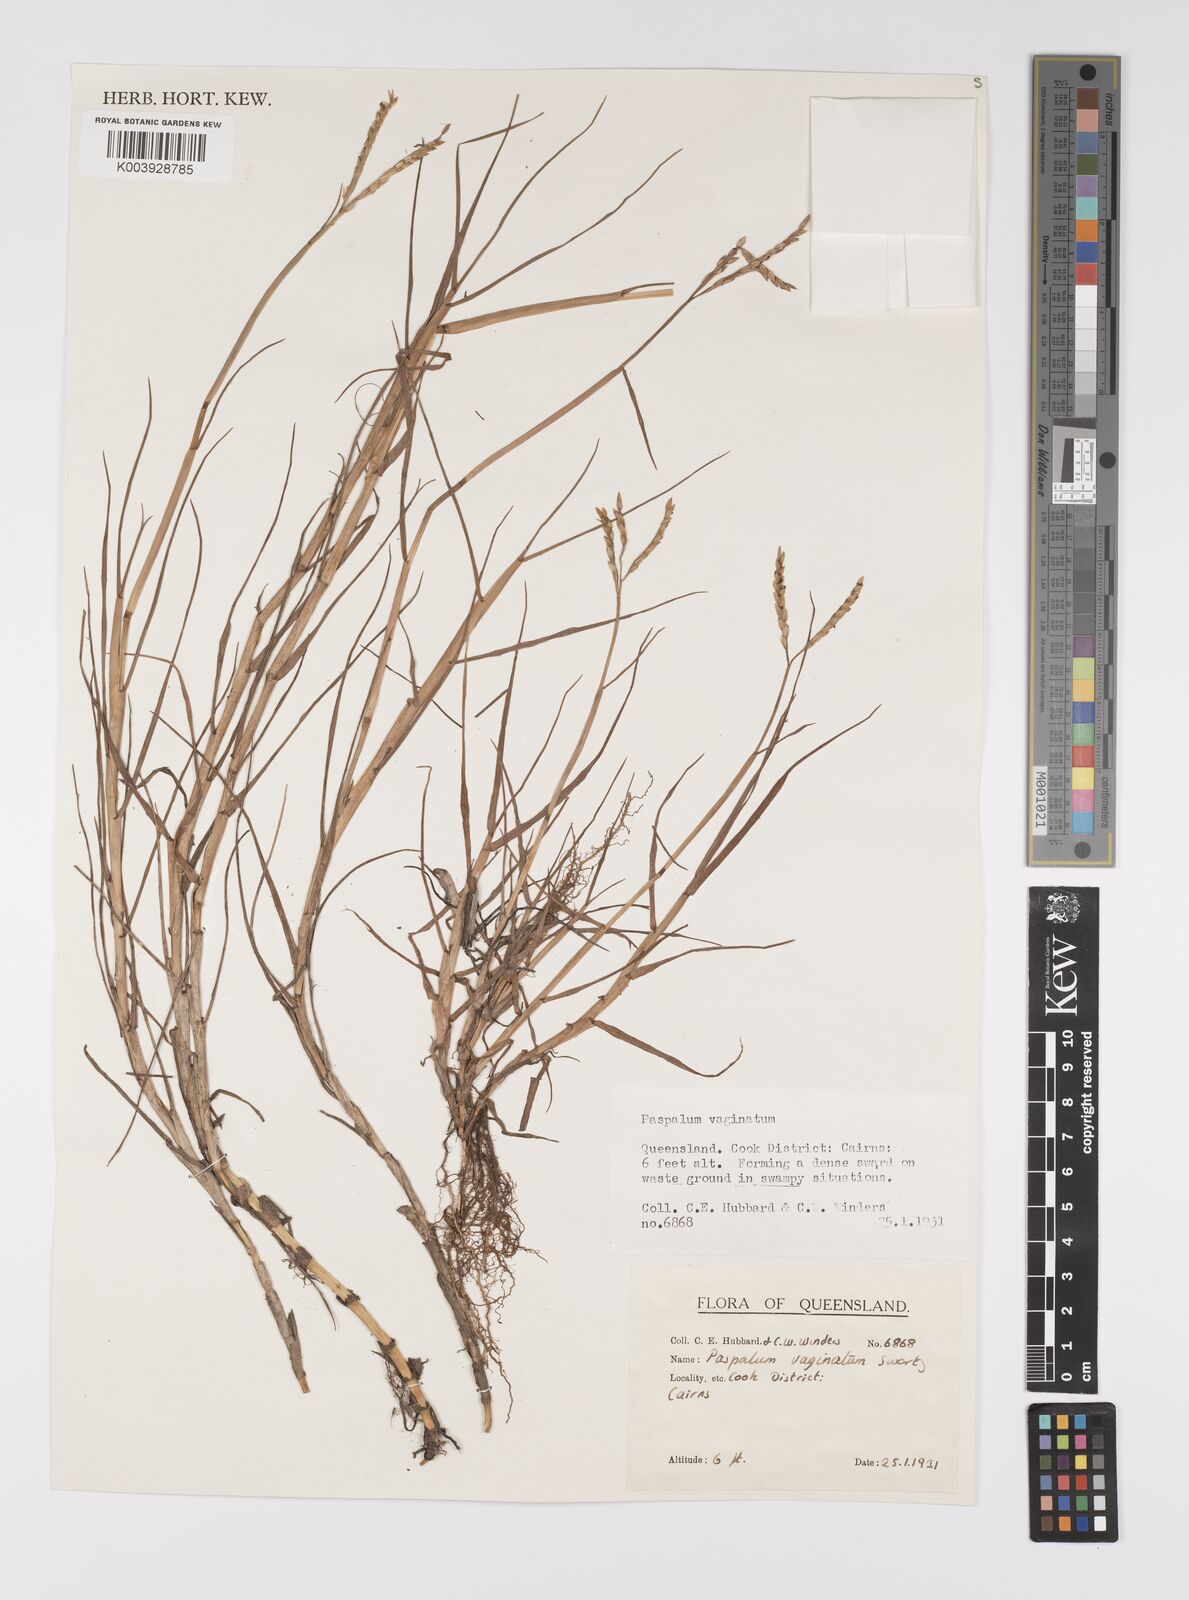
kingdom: Plantae
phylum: Tracheophyta
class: Liliopsida
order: Poales
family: Poaceae
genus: Paspalum
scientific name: Paspalum vaginatum
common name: Seashore paspalum
